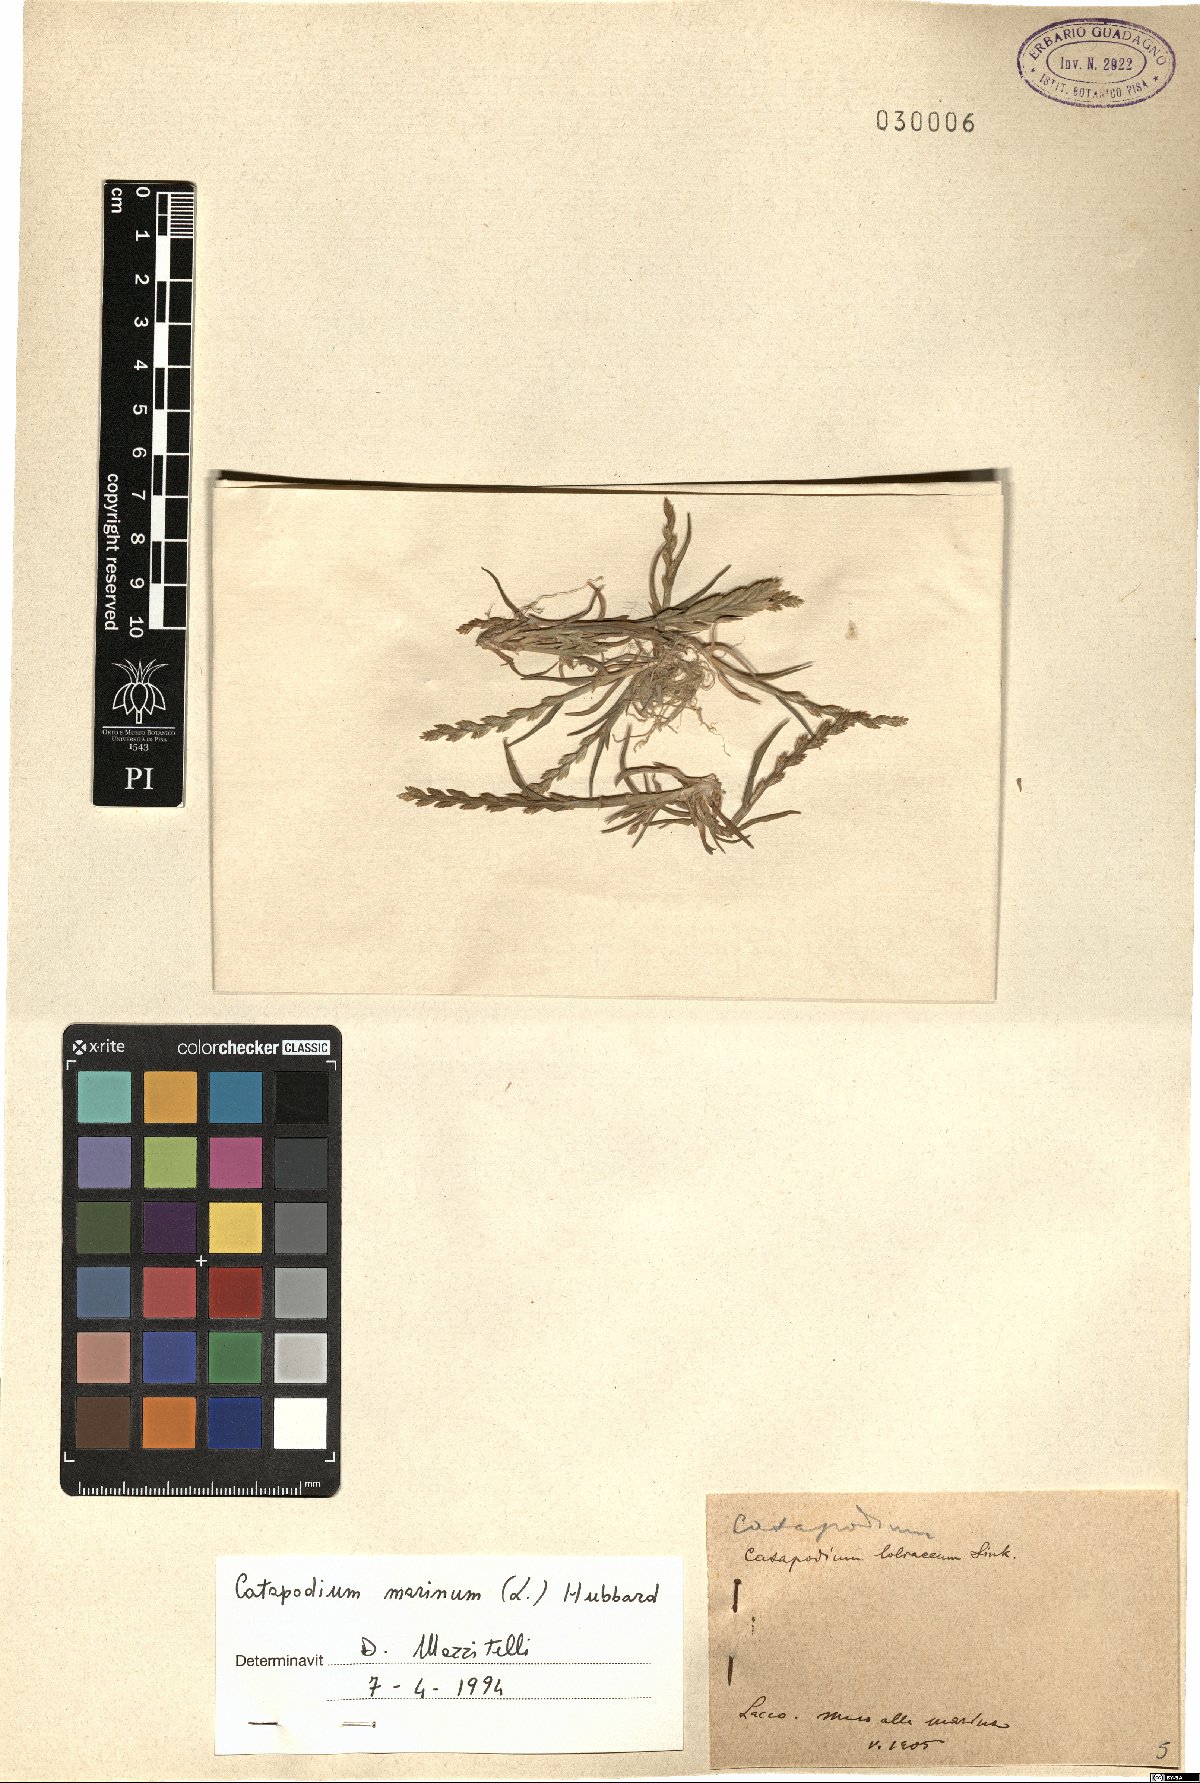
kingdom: Plantae
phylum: Tracheophyta
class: Liliopsida
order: Poales
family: Poaceae
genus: Catapodium
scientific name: Catapodium marinum
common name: Sea fern-grass
